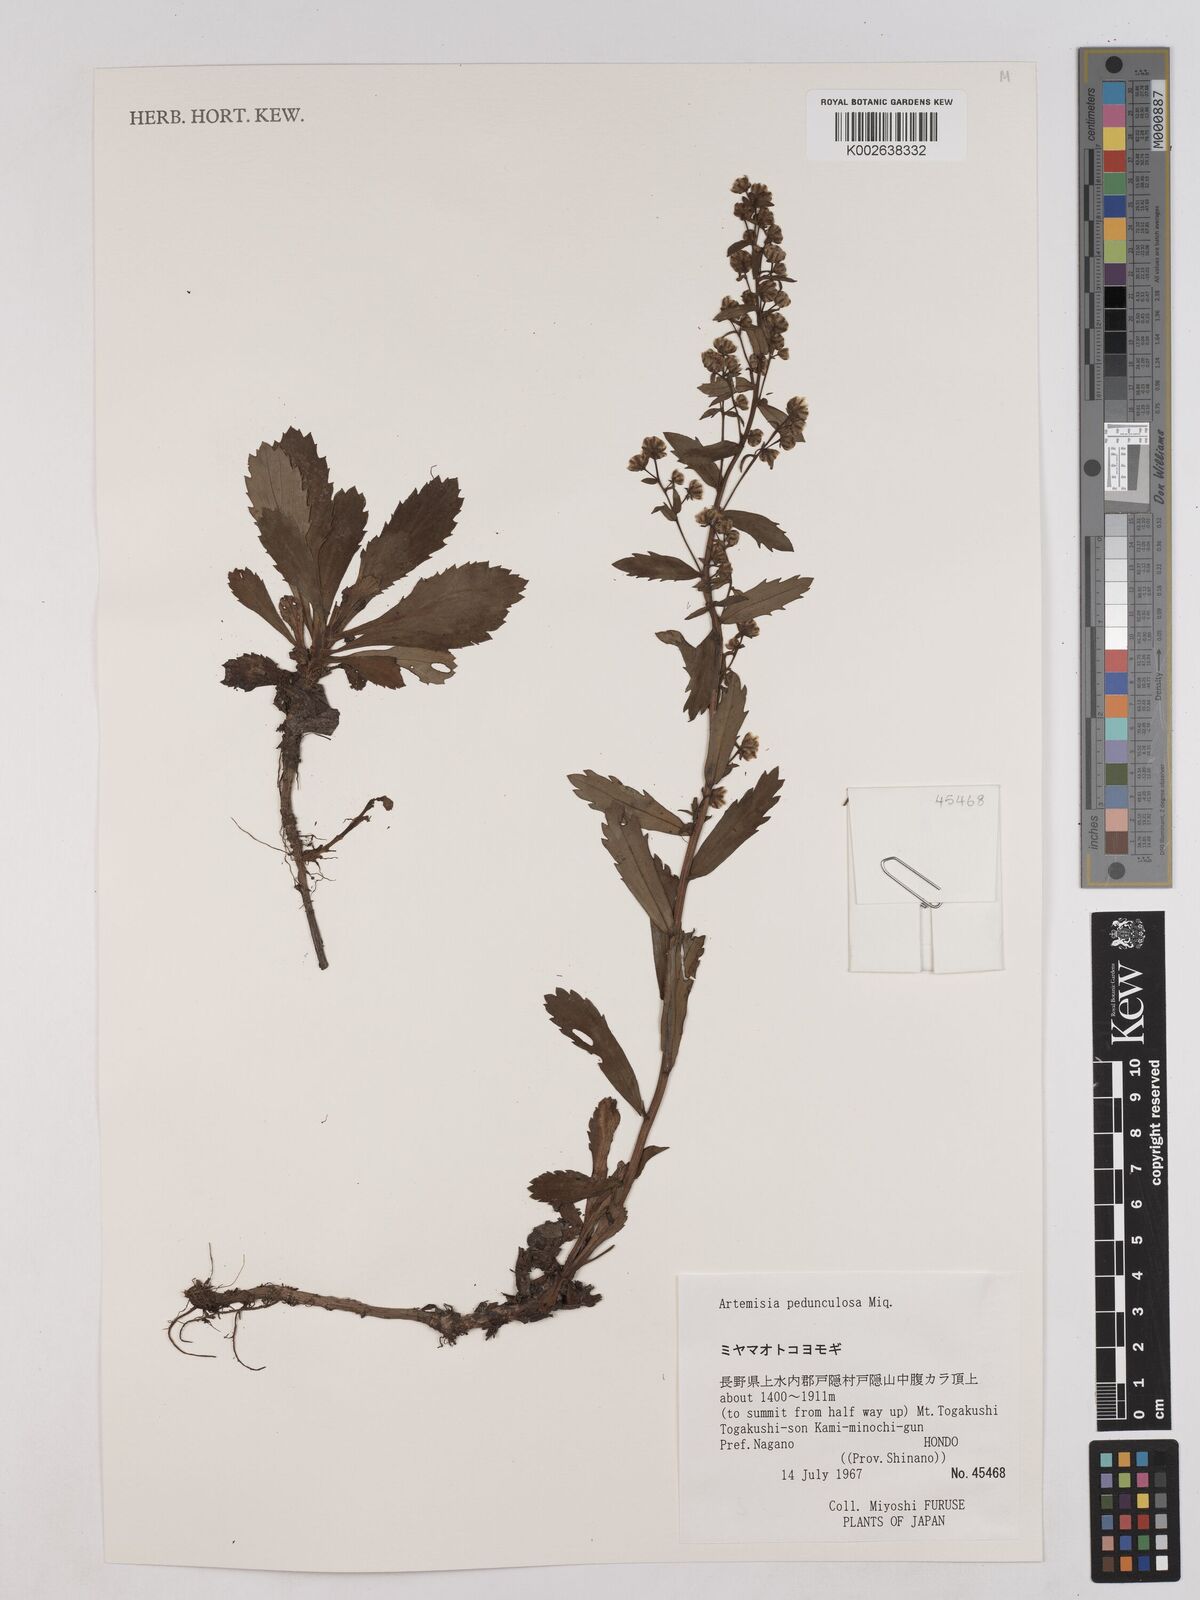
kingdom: Plantae
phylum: Tracheophyta
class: Magnoliopsida
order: Asterales
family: Asteraceae
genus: Artemisia
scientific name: Artemisia pedunculosa
